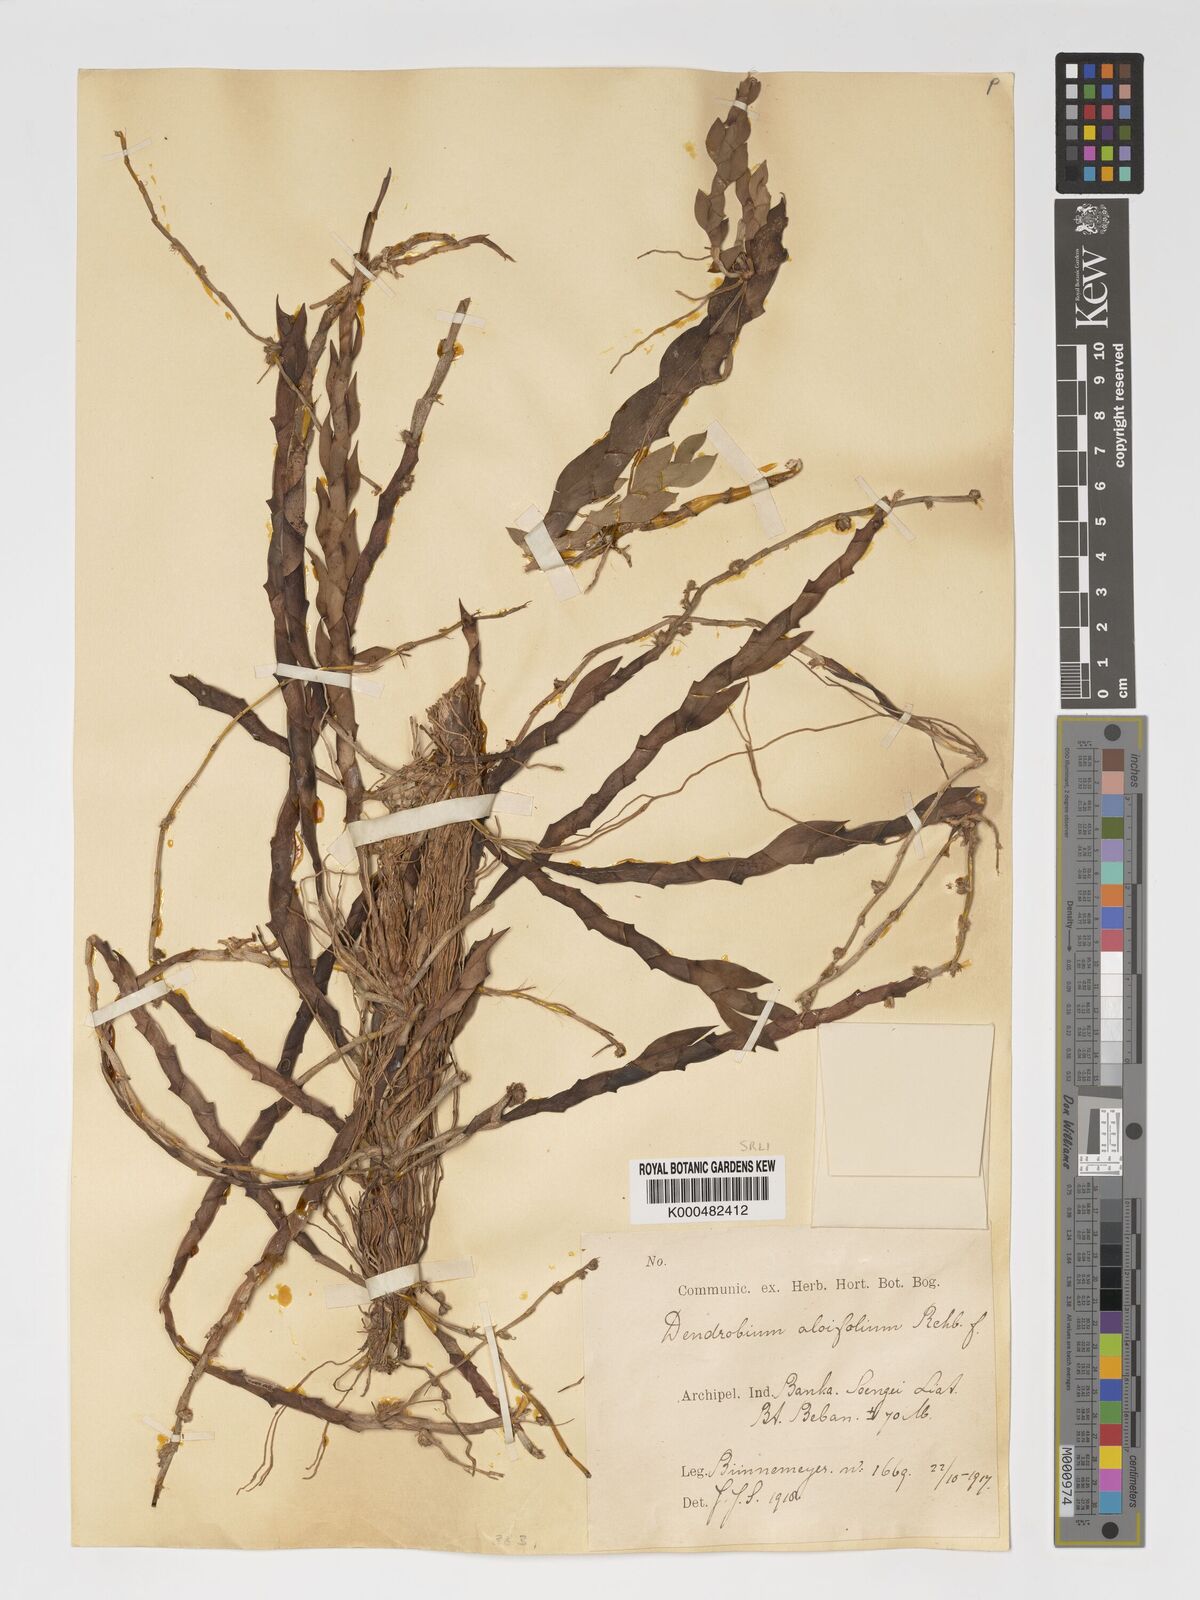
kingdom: Plantae
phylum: Tracheophyta
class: Liliopsida
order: Asparagales
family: Orchidaceae
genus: Dendrobium
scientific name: Dendrobium aloifolium
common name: Aloe-like dendrobium
